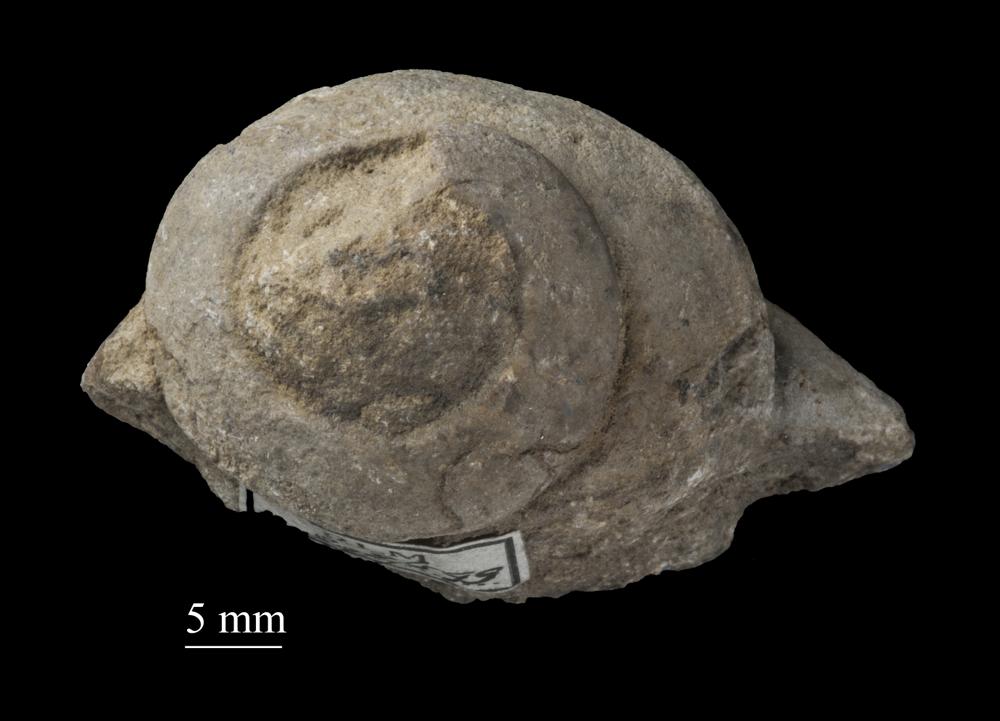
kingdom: Animalia
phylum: Mollusca
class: Gastropoda
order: Trochida
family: Trochidae
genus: Trochus
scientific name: Trochus ellipticus
